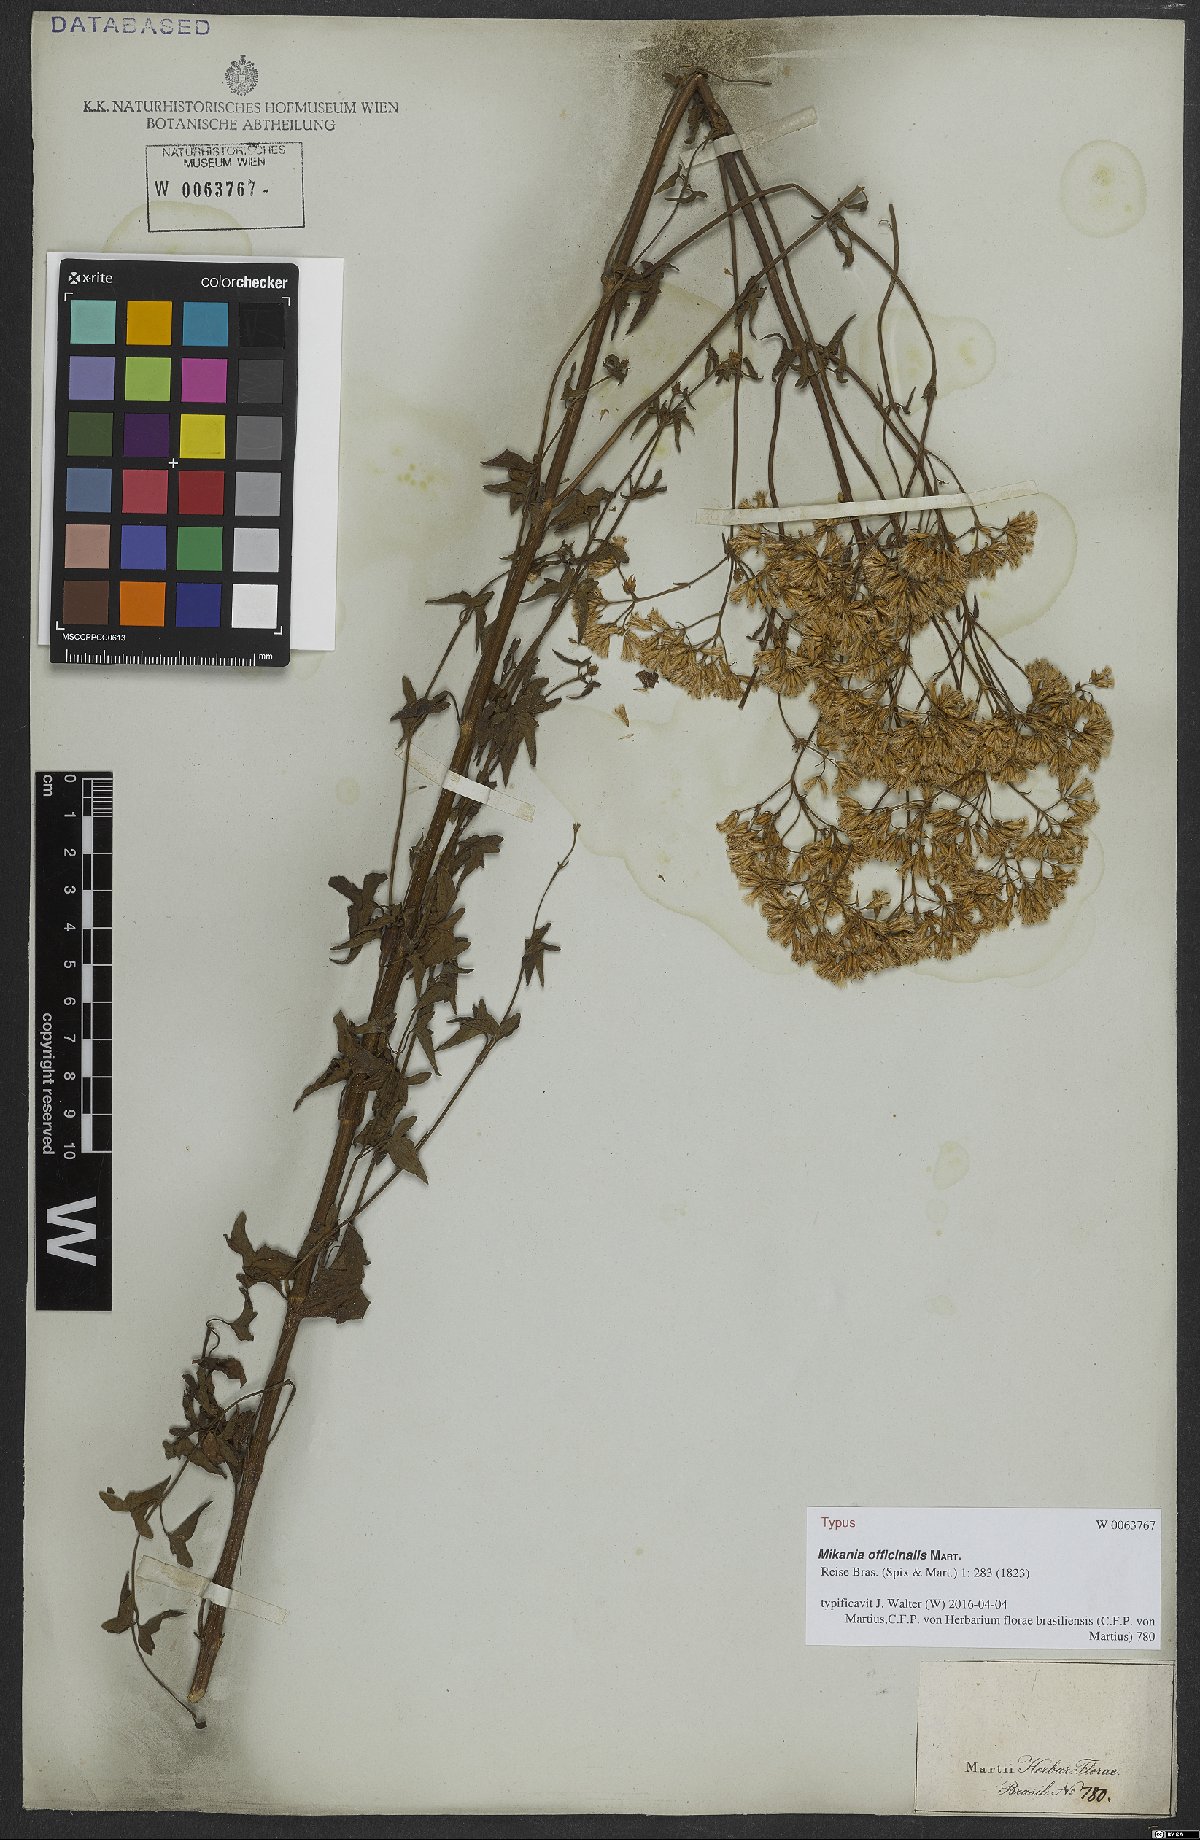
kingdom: Plantae
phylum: Tracheophyta
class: Magnoliopsida
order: Asterales
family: Asteraceae
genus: Mikania
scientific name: Mikania officinalis
